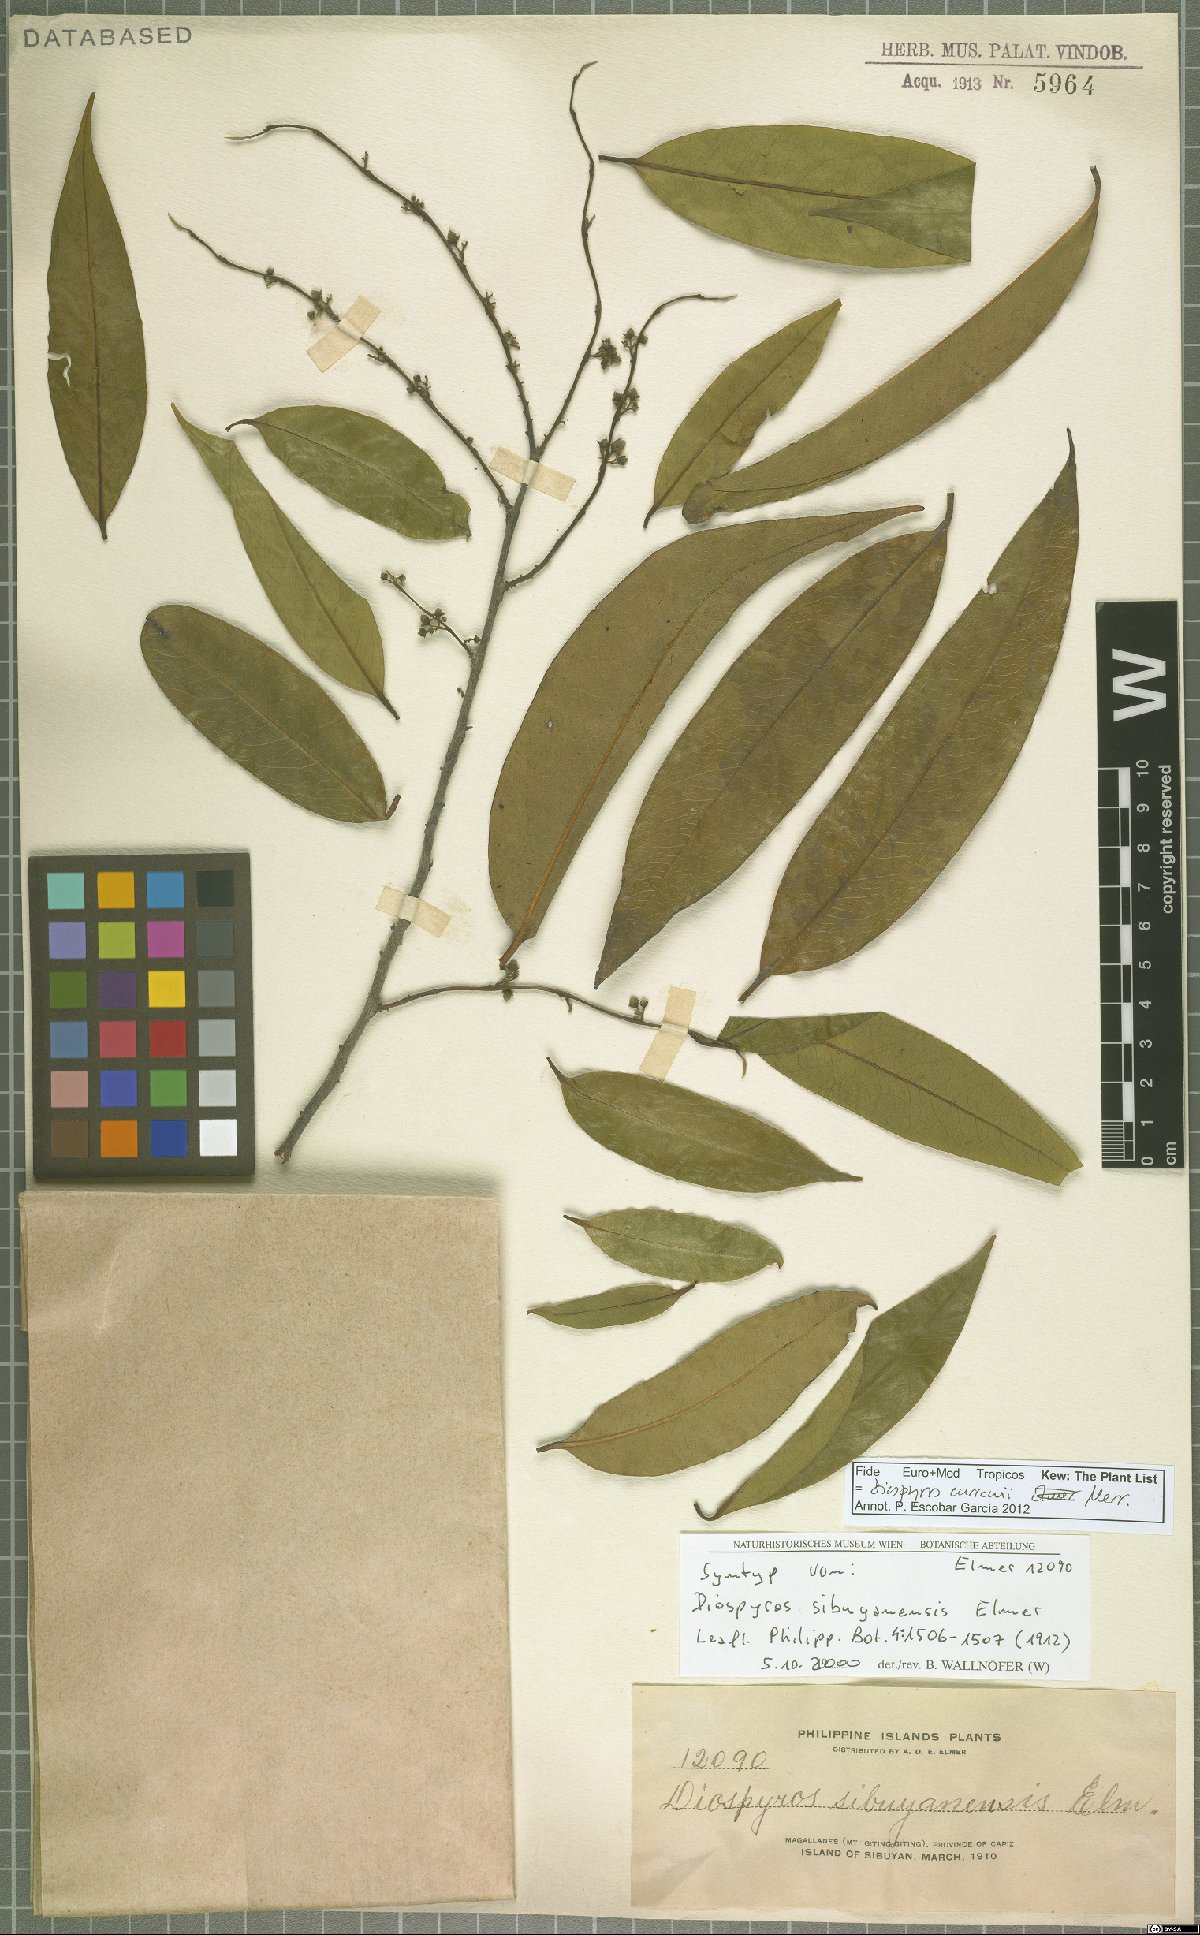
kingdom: Plantae
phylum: Tracheophyta
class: Magnoliopsida
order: Ericales
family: Ebenaceae
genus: Diospyros
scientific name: Diospyros curranii
